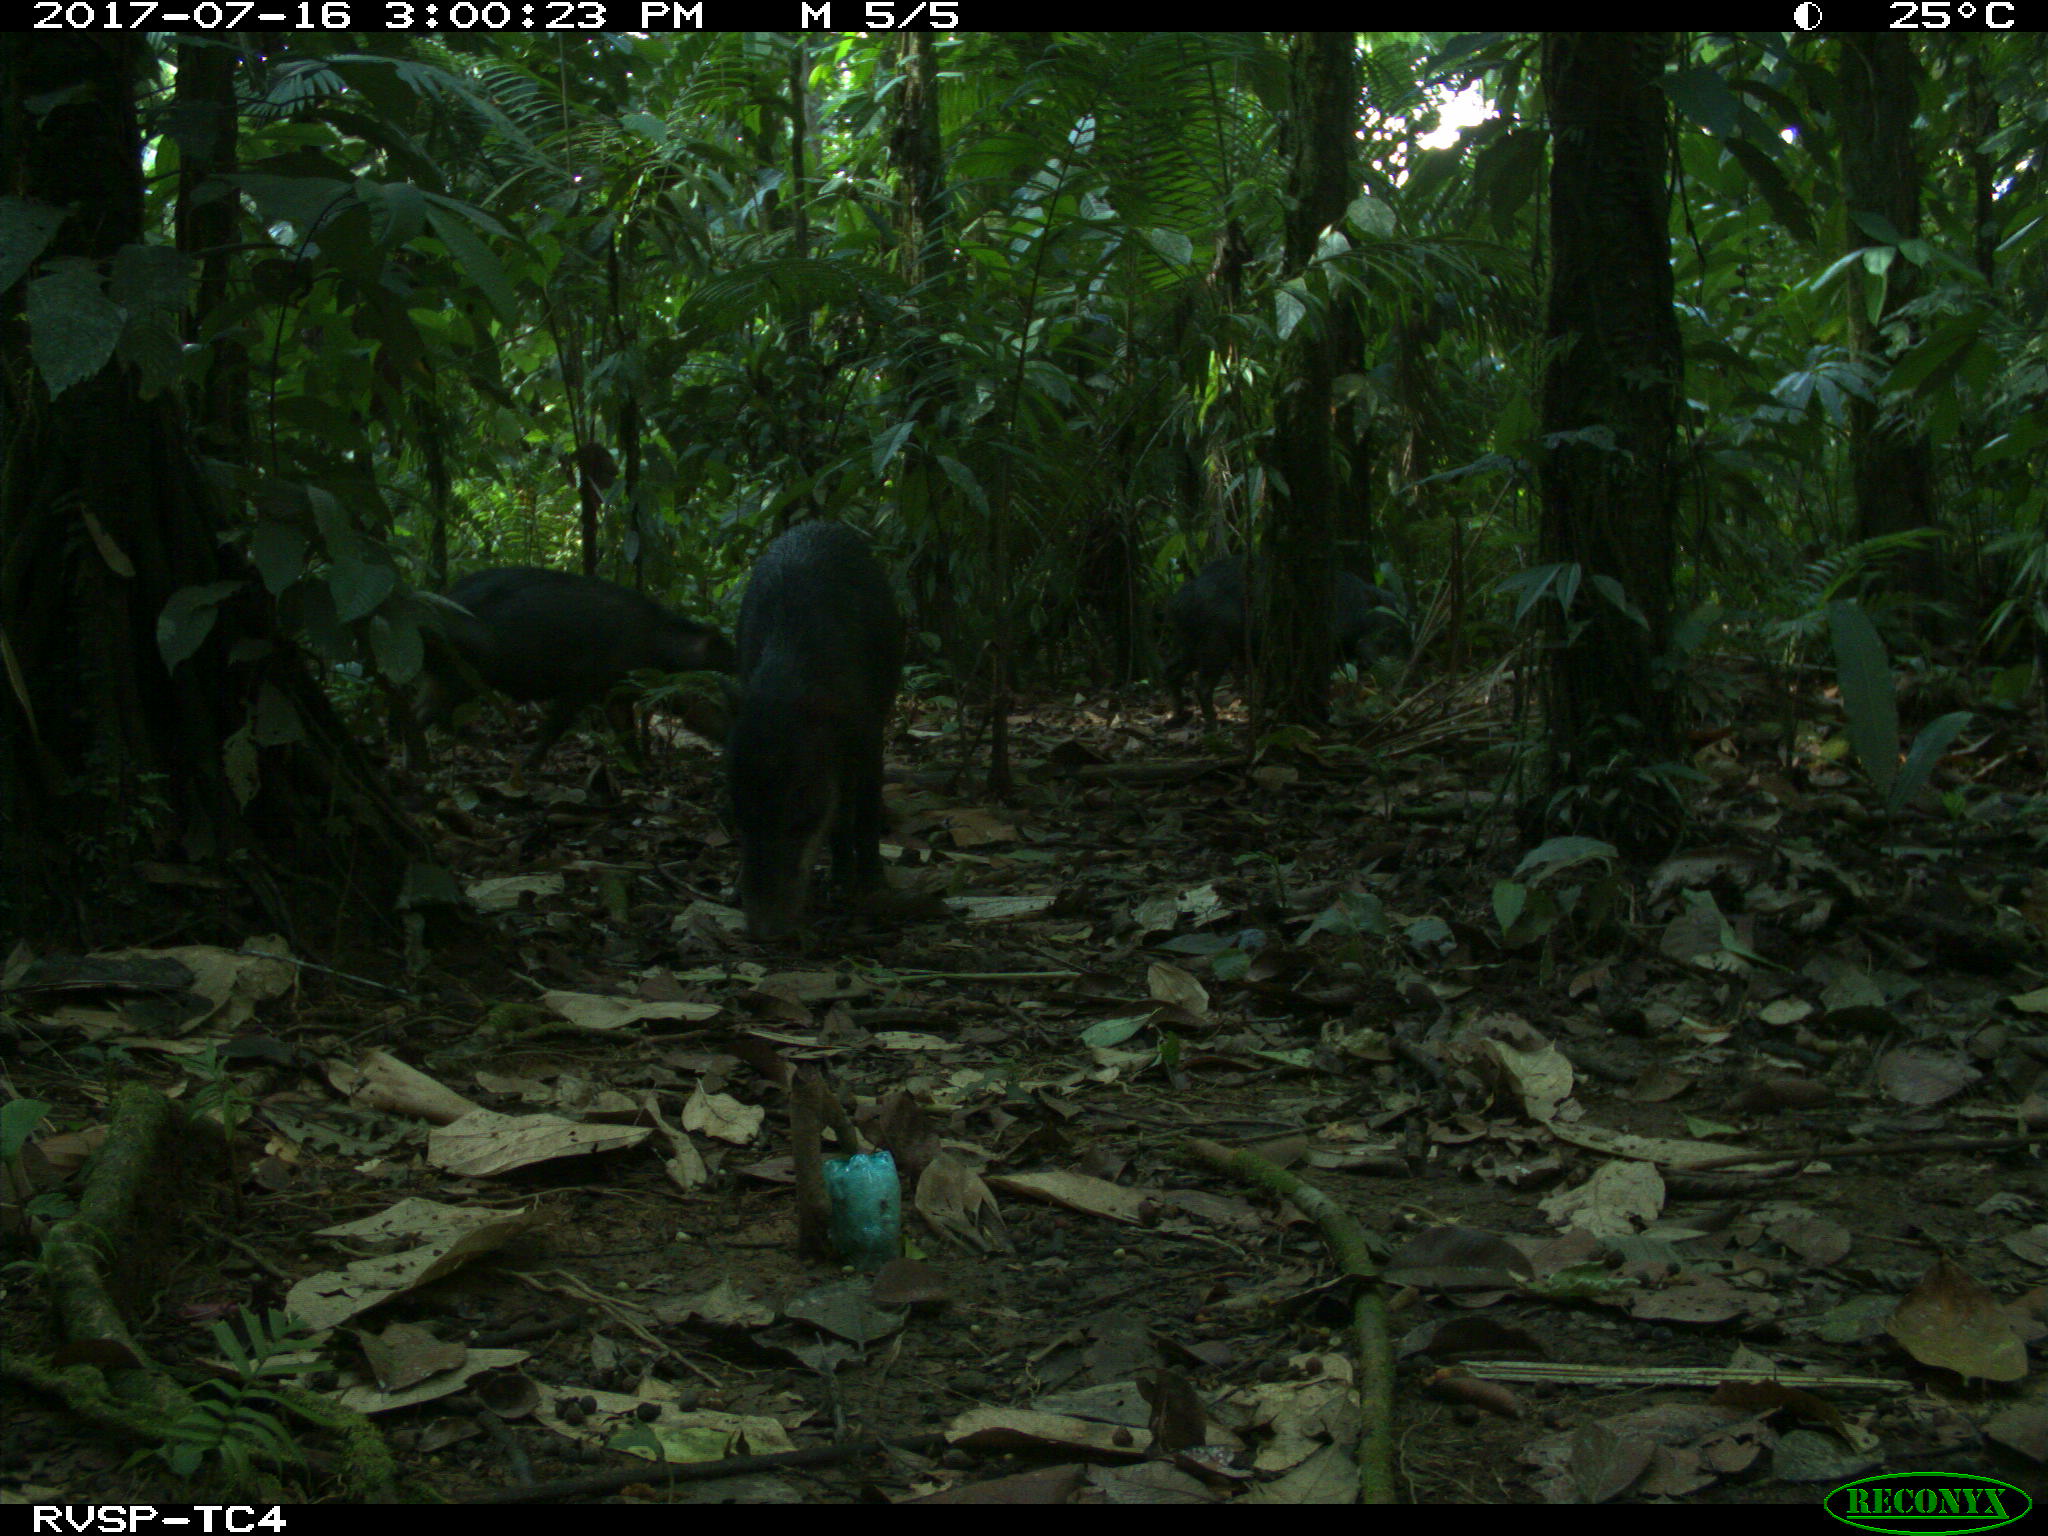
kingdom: Animalia
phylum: Chordata
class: Mammalia
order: Artiodactyla
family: Tayassuidae
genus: Tayassu
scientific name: Tayassu pecari
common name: White-lipped peccary
